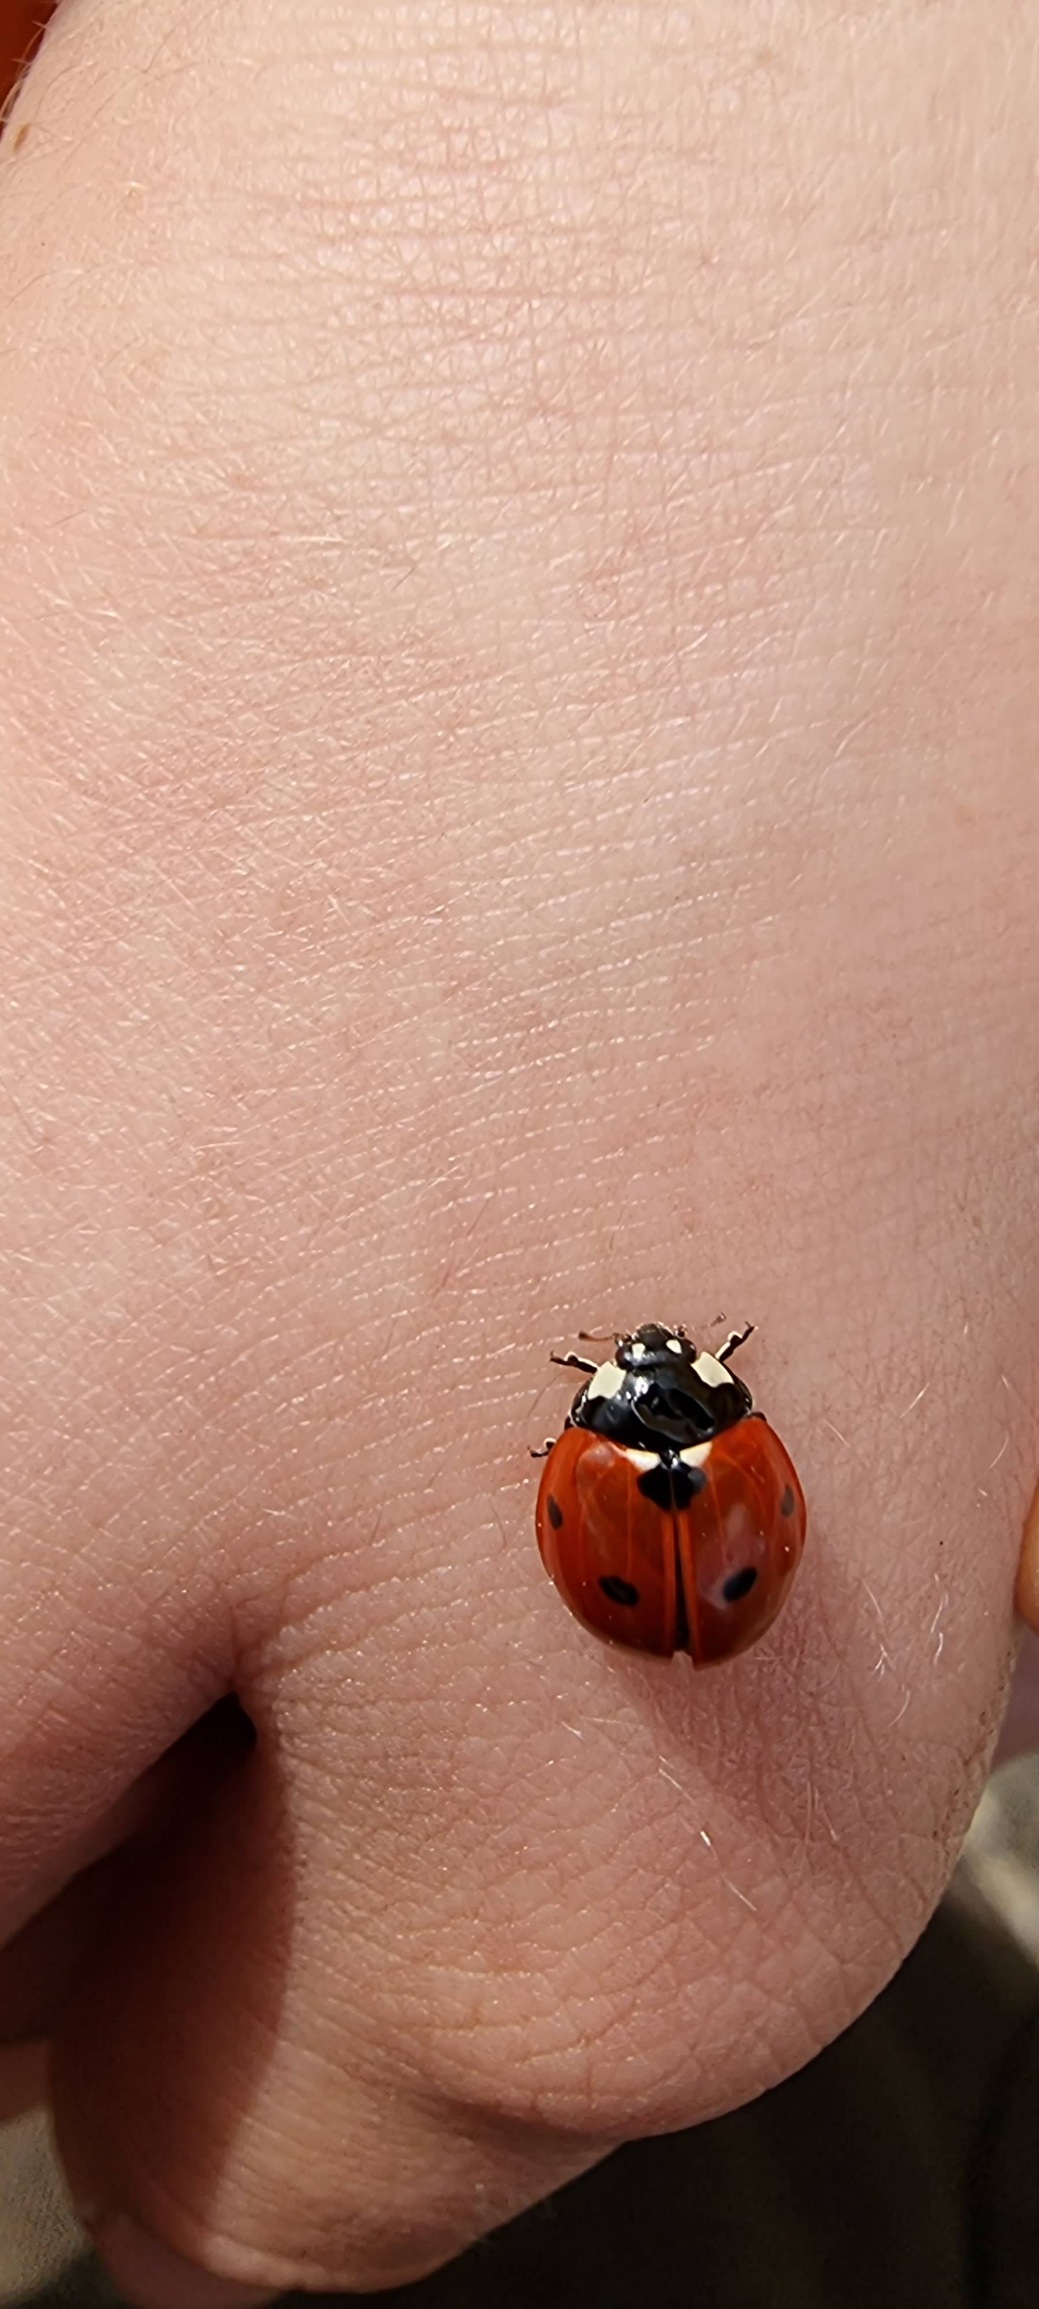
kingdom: Animalia
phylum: Arthropoda
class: Insecta
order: Coleoptera
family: Coccinellidae
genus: Coccinella
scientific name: Coccinella septempunctata
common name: Syvplettet mariehøne
